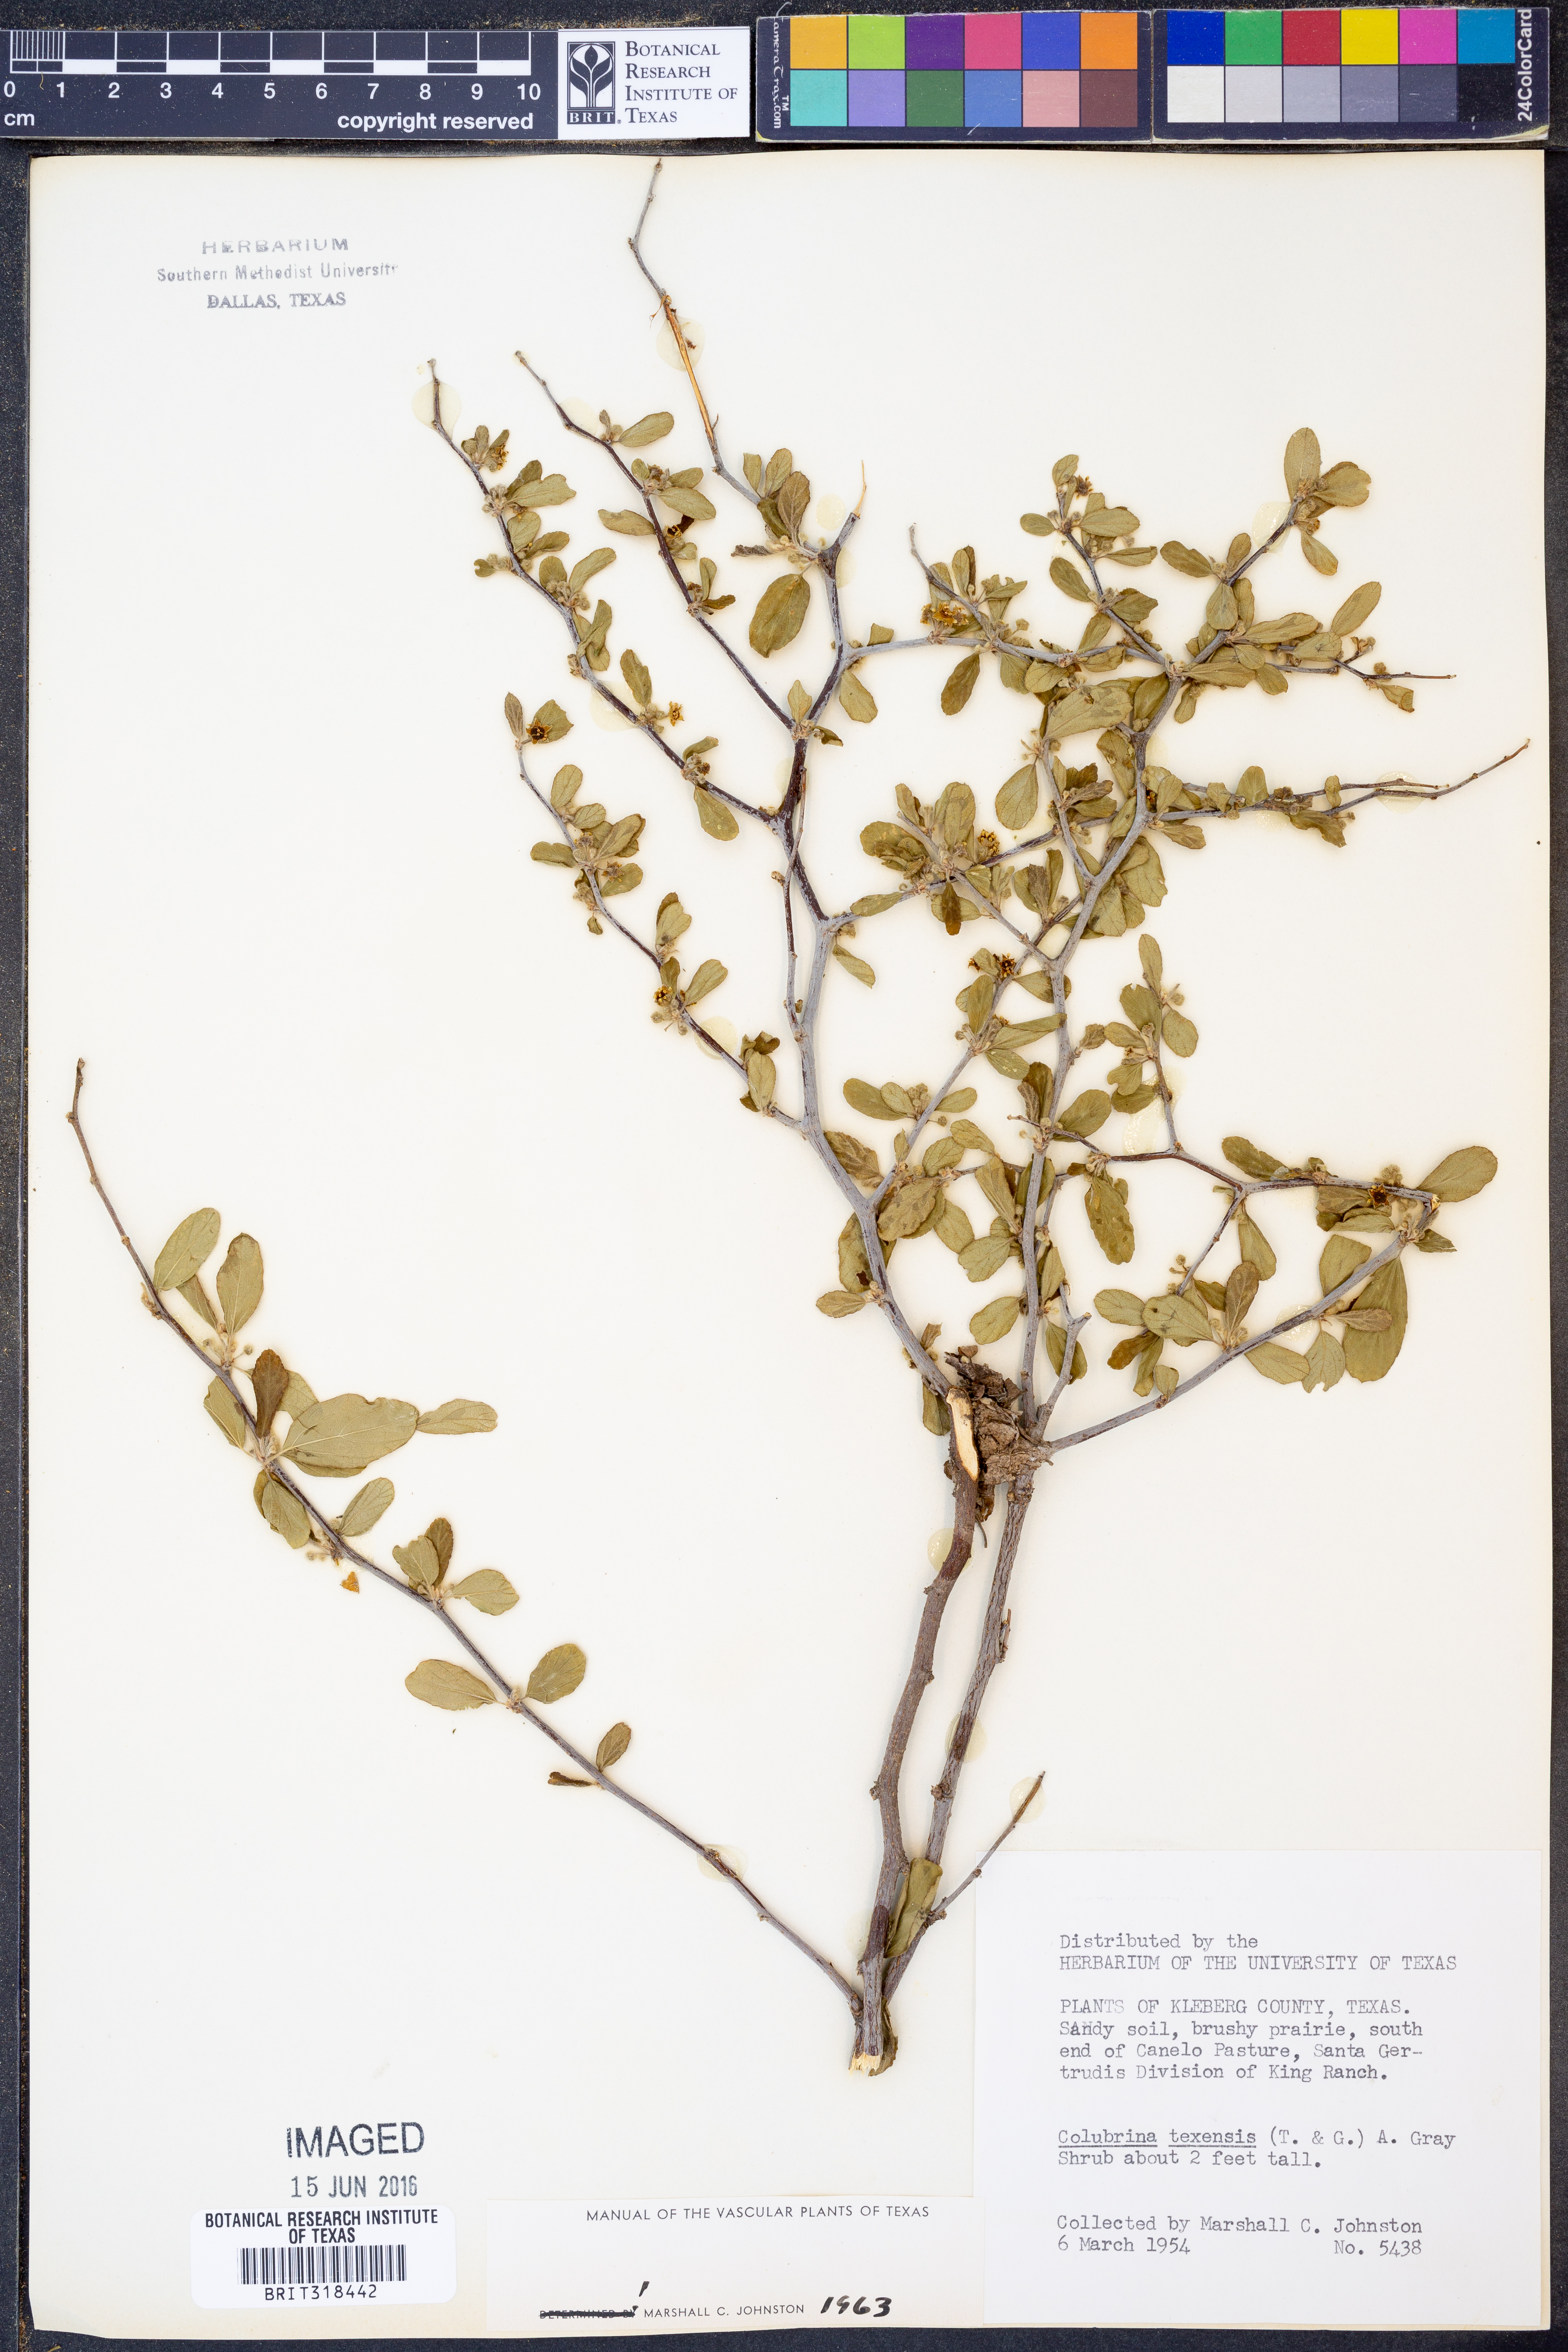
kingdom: Plantae
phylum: Tracheophyta
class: Magnoliopsida
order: Rosales
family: Rhamnaceae
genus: Colubrina
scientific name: Colubrina texensis
